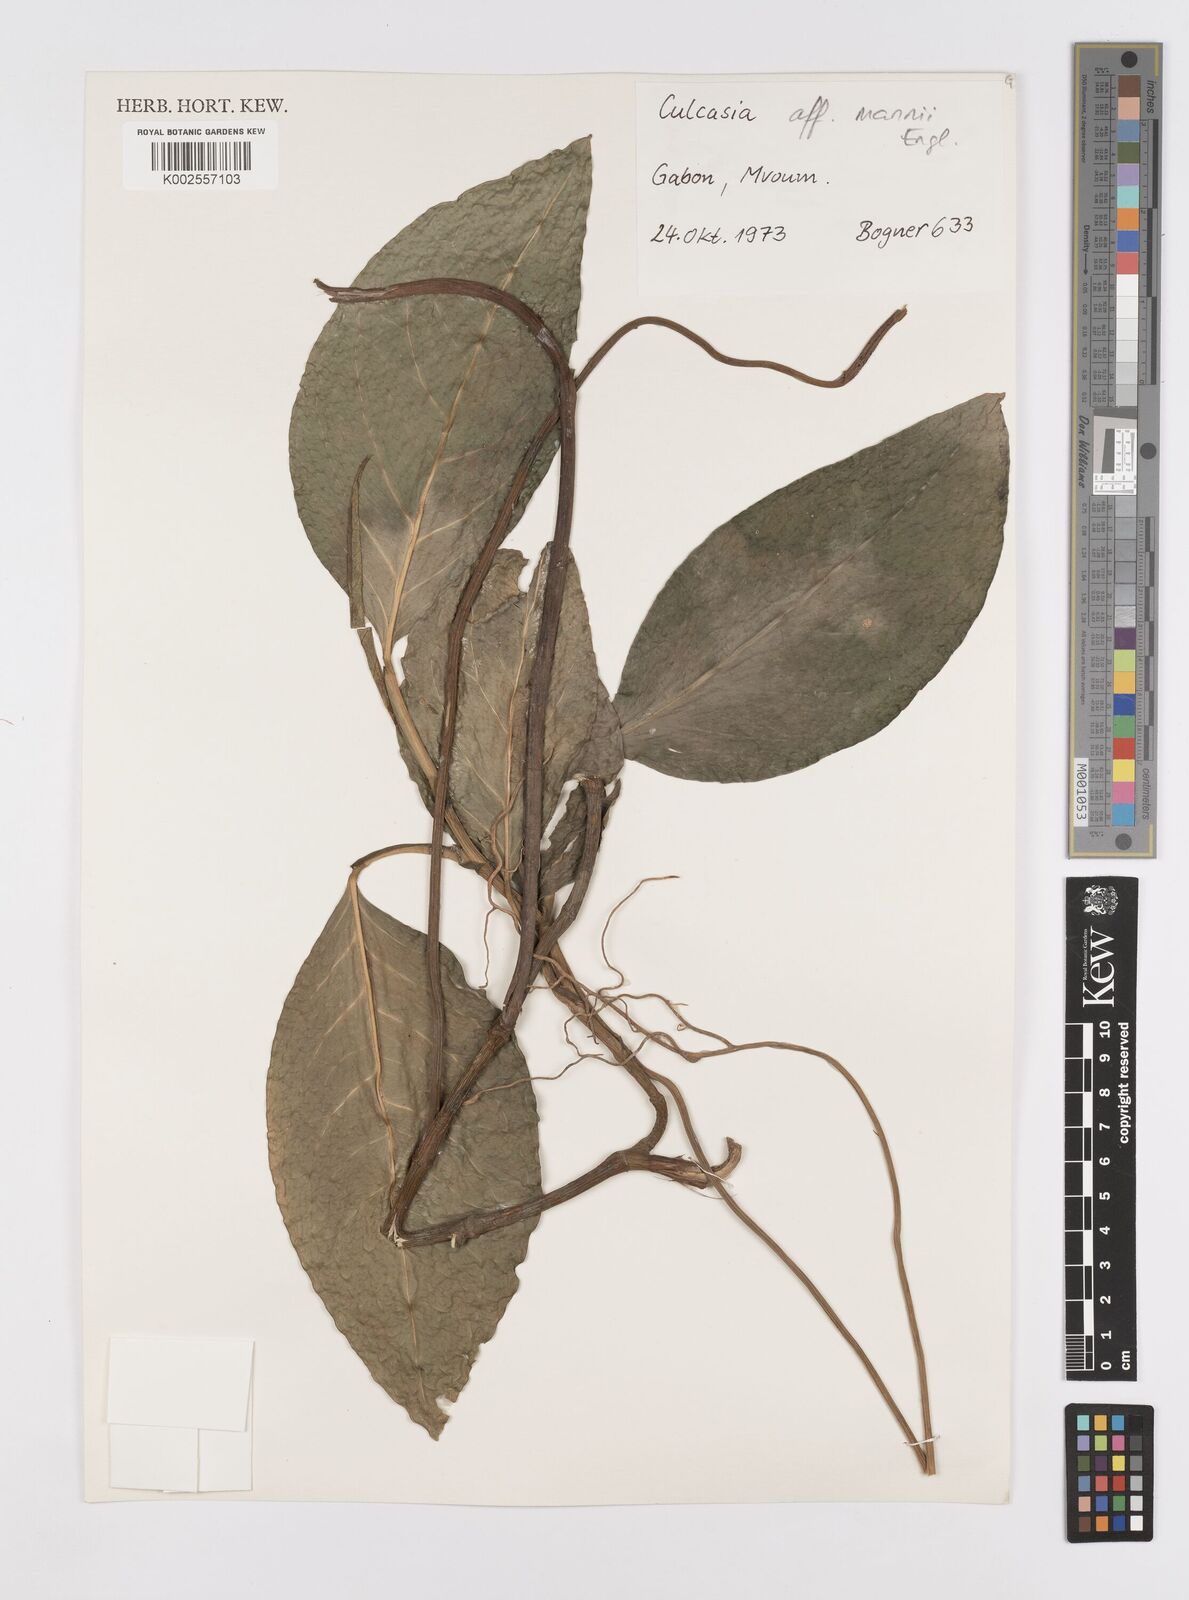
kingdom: Plantae
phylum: Tracheophyta
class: Liliopsida
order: Alismatales
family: Araceae
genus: Culcasia
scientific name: Culcasia mannii
